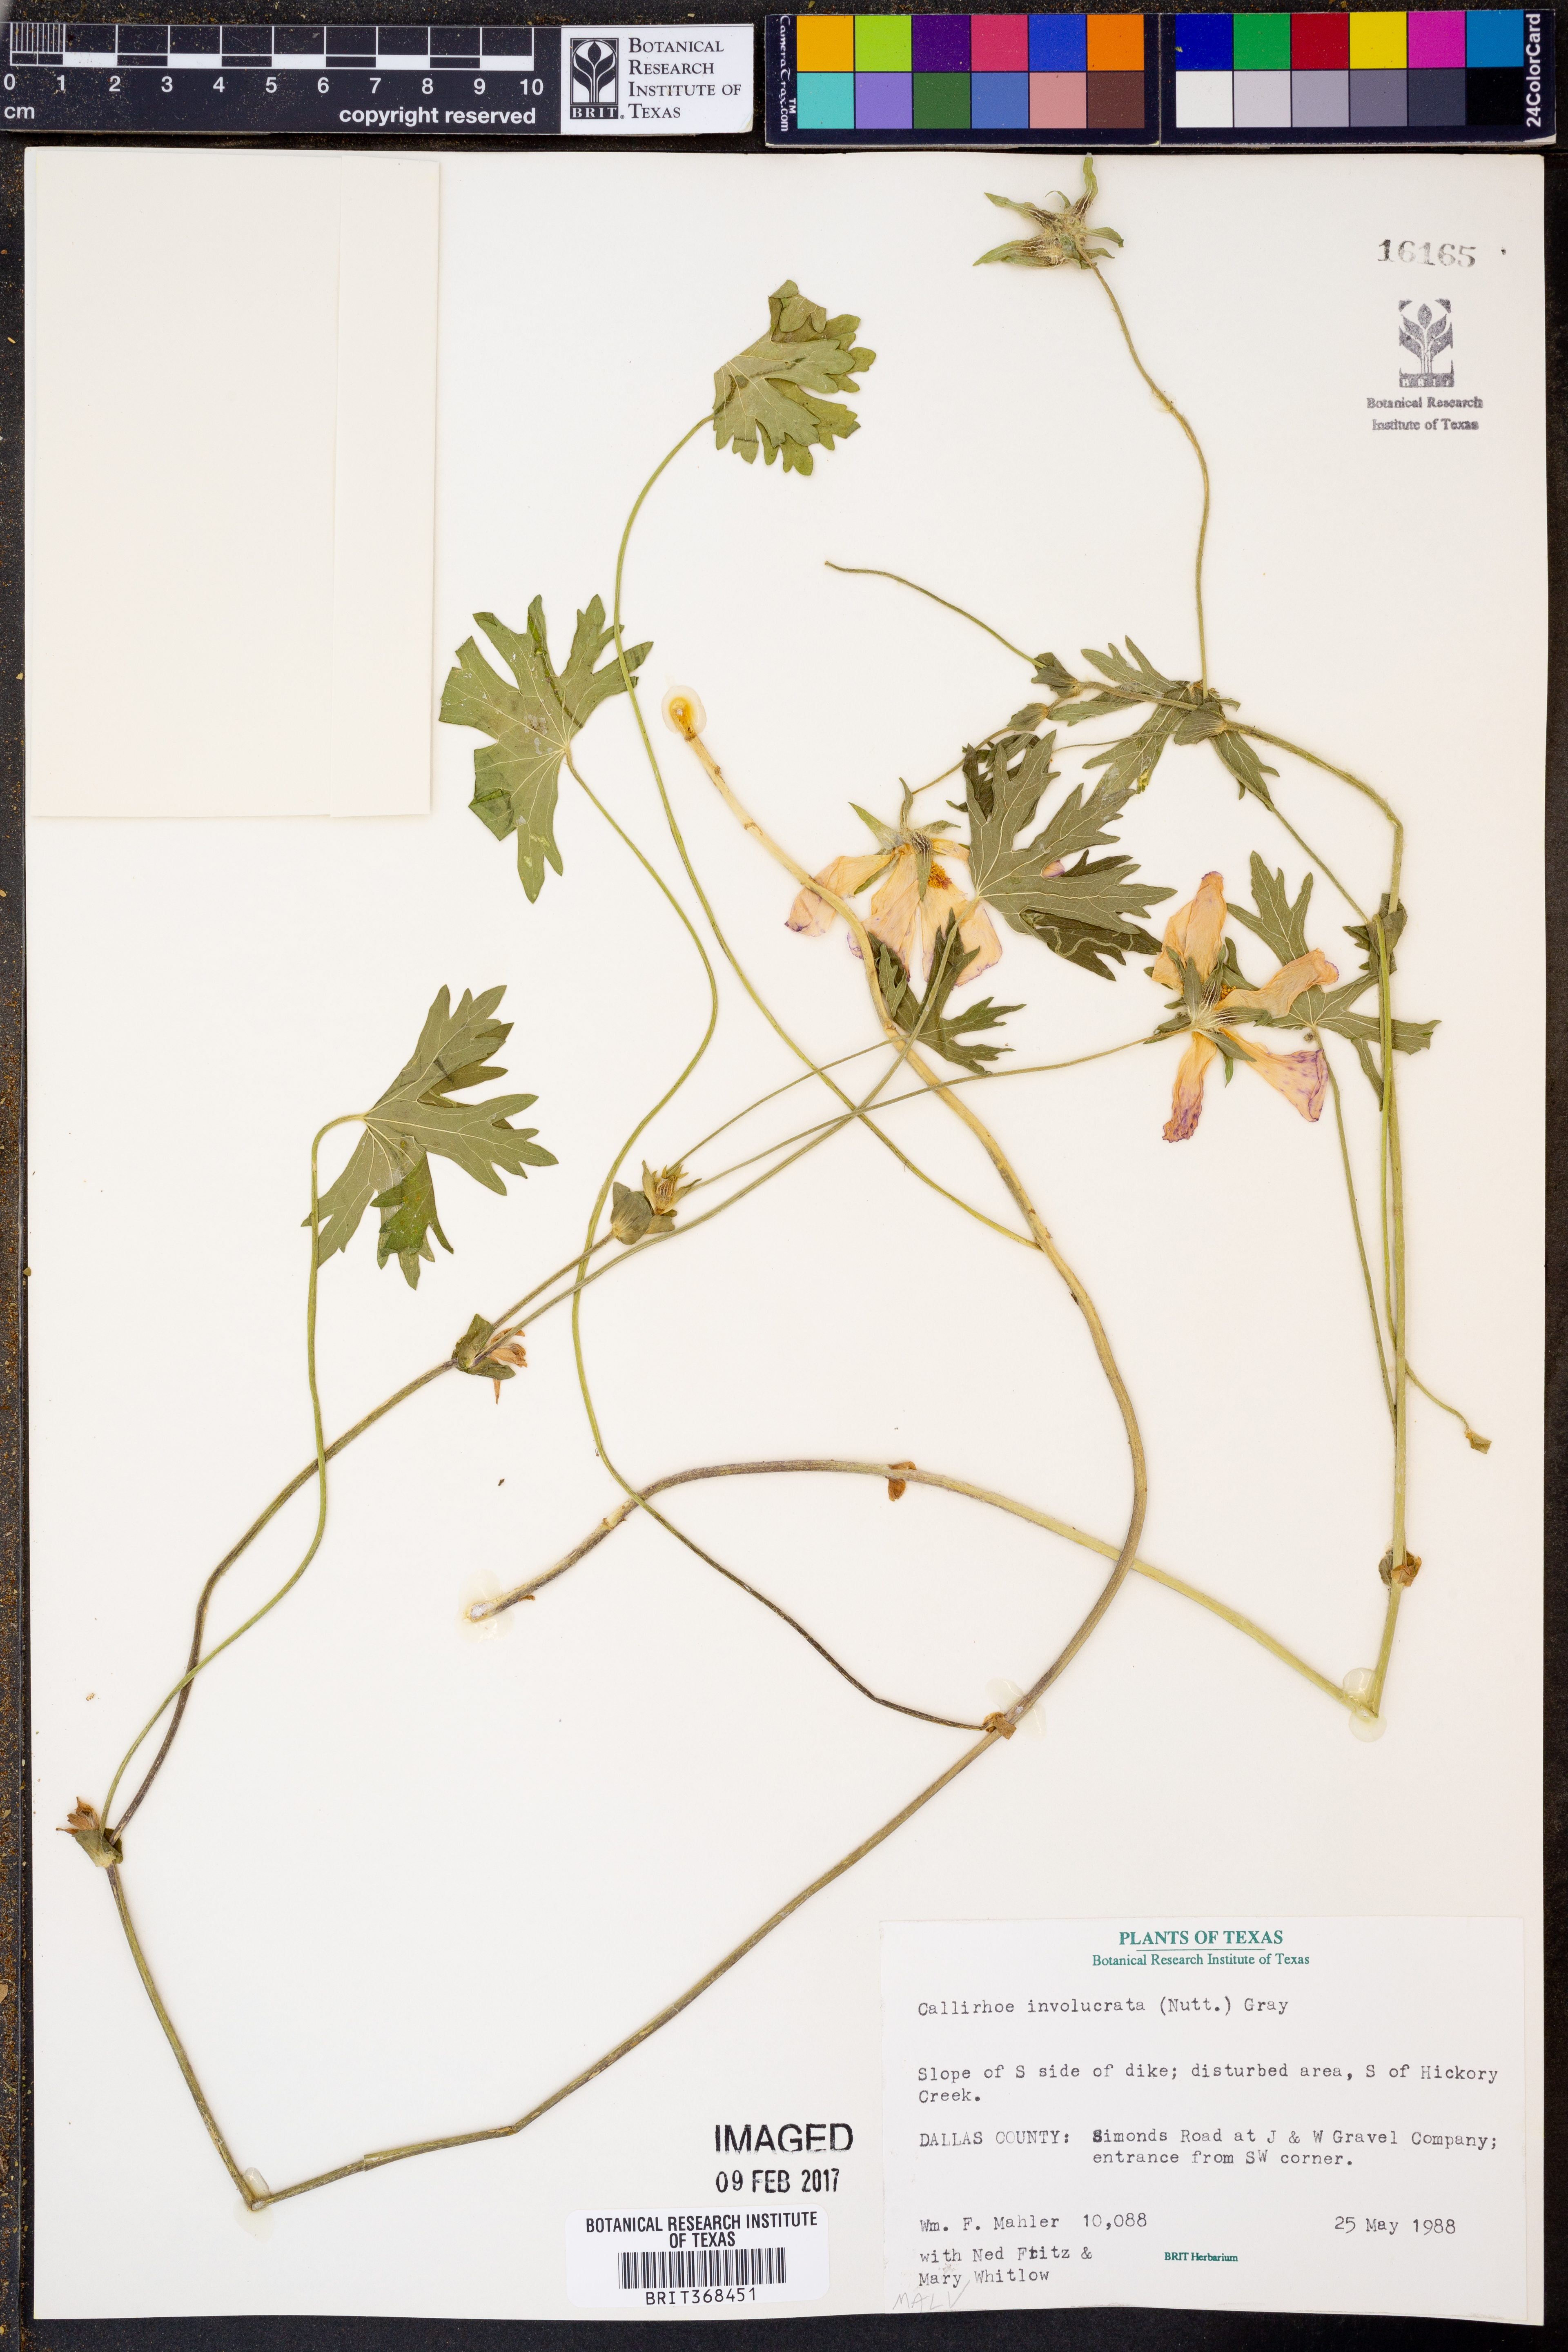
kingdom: Plantae
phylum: Tracheophyta
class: Magnoliopsida
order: Malvales
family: Malvaceae
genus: Callirhoe
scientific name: Callirhoe involucrata
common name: Purple poppy-mallow
